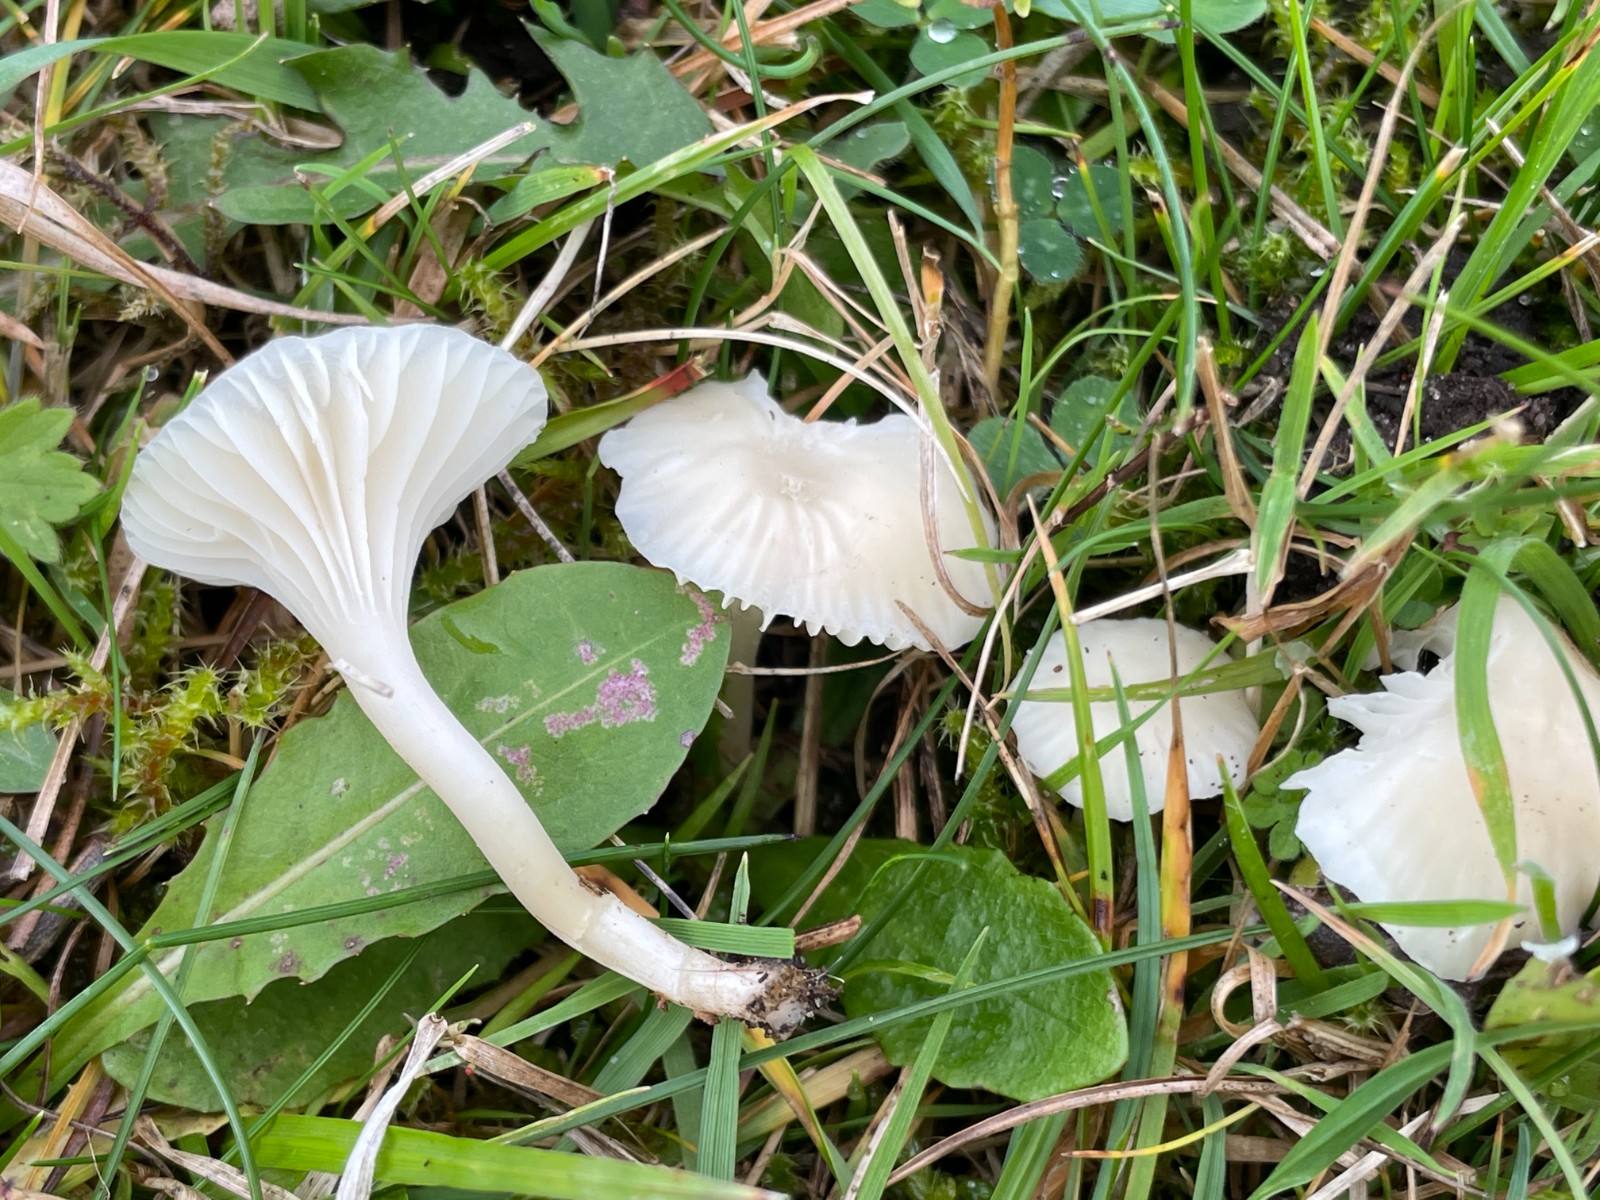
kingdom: Fungi
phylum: Basidiomycota
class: Agaricomycetes
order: Agaricales
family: Hygrophoraceae
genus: Cuphophyllus
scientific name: Cuphophyllus virgineus
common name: snehvid vokshat
